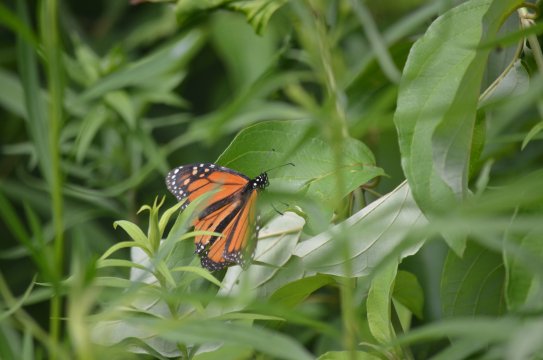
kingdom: Animalia
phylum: Arthropoda
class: Insecta
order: Lepidoptera
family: Nymphalidae
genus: Danaus
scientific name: Danaus plexippus
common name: Monarch
